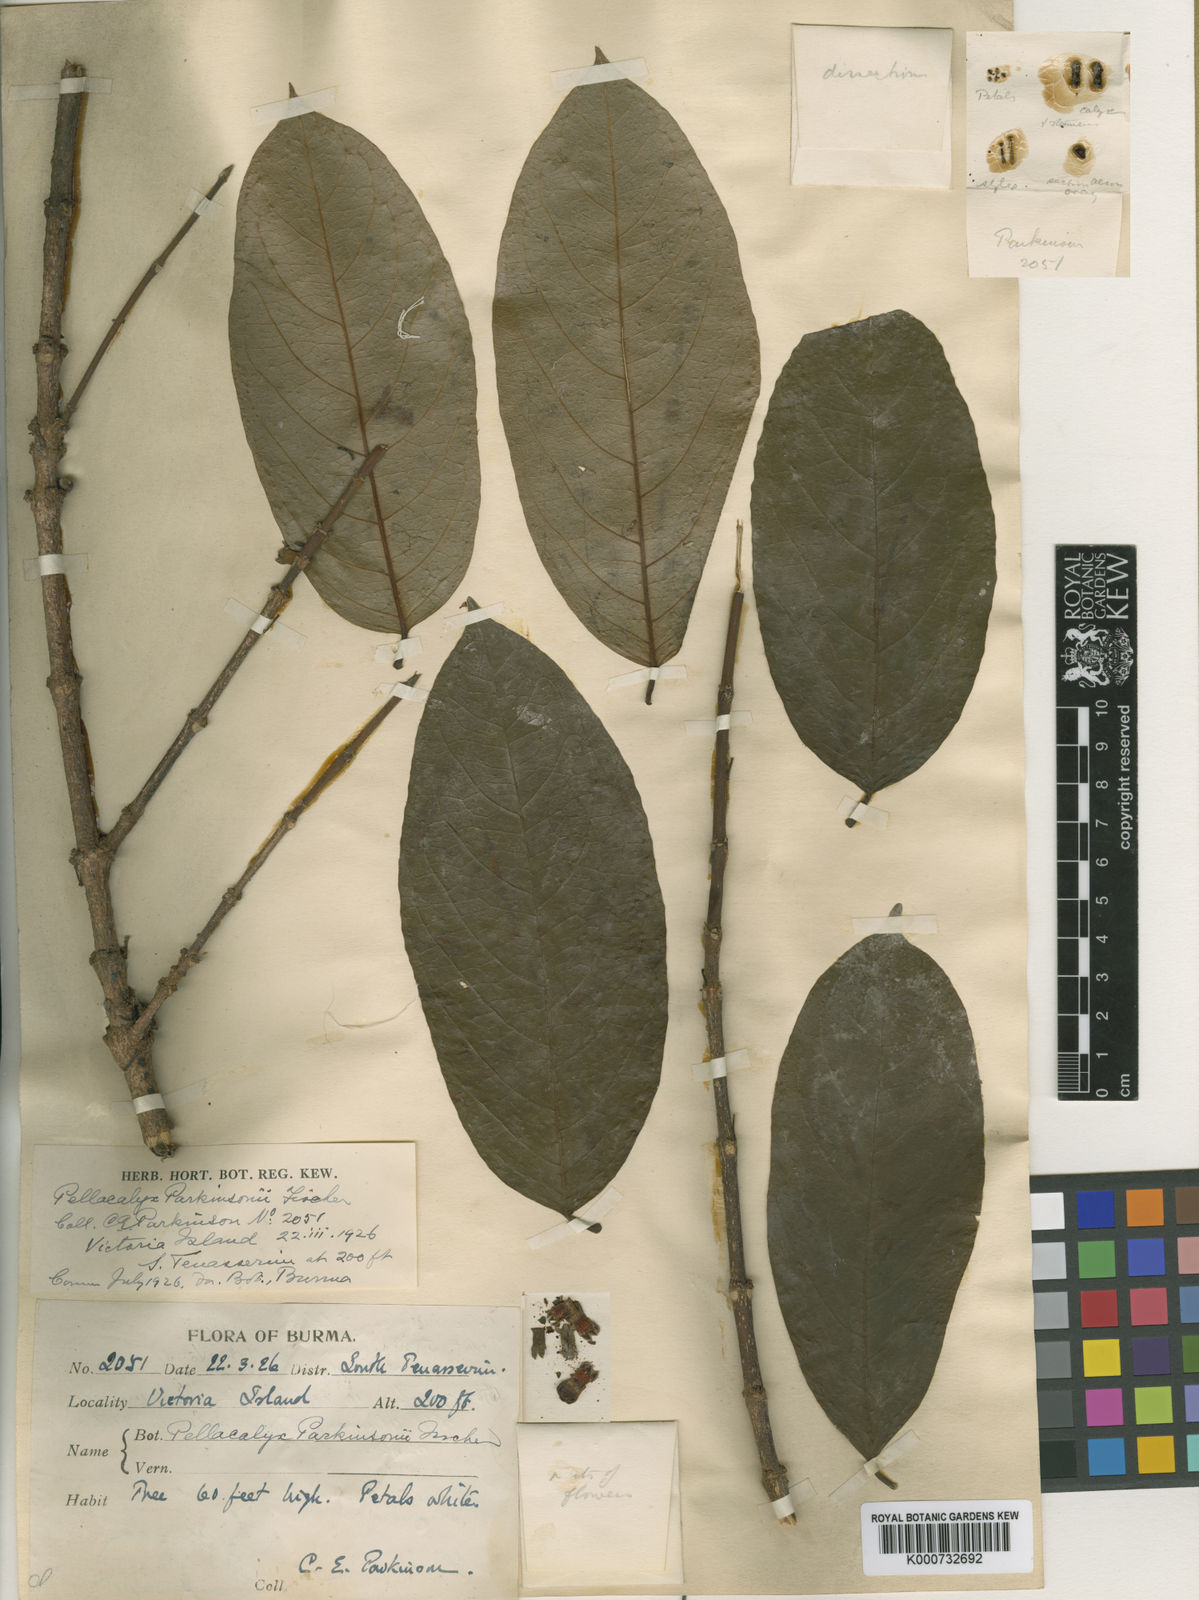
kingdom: Plantae
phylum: Tracheophyta
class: Magnoliopsida
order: Malpighiales
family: Rhizophoraceae
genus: Pellacalyx
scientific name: Pellacalyx parkinsonii
